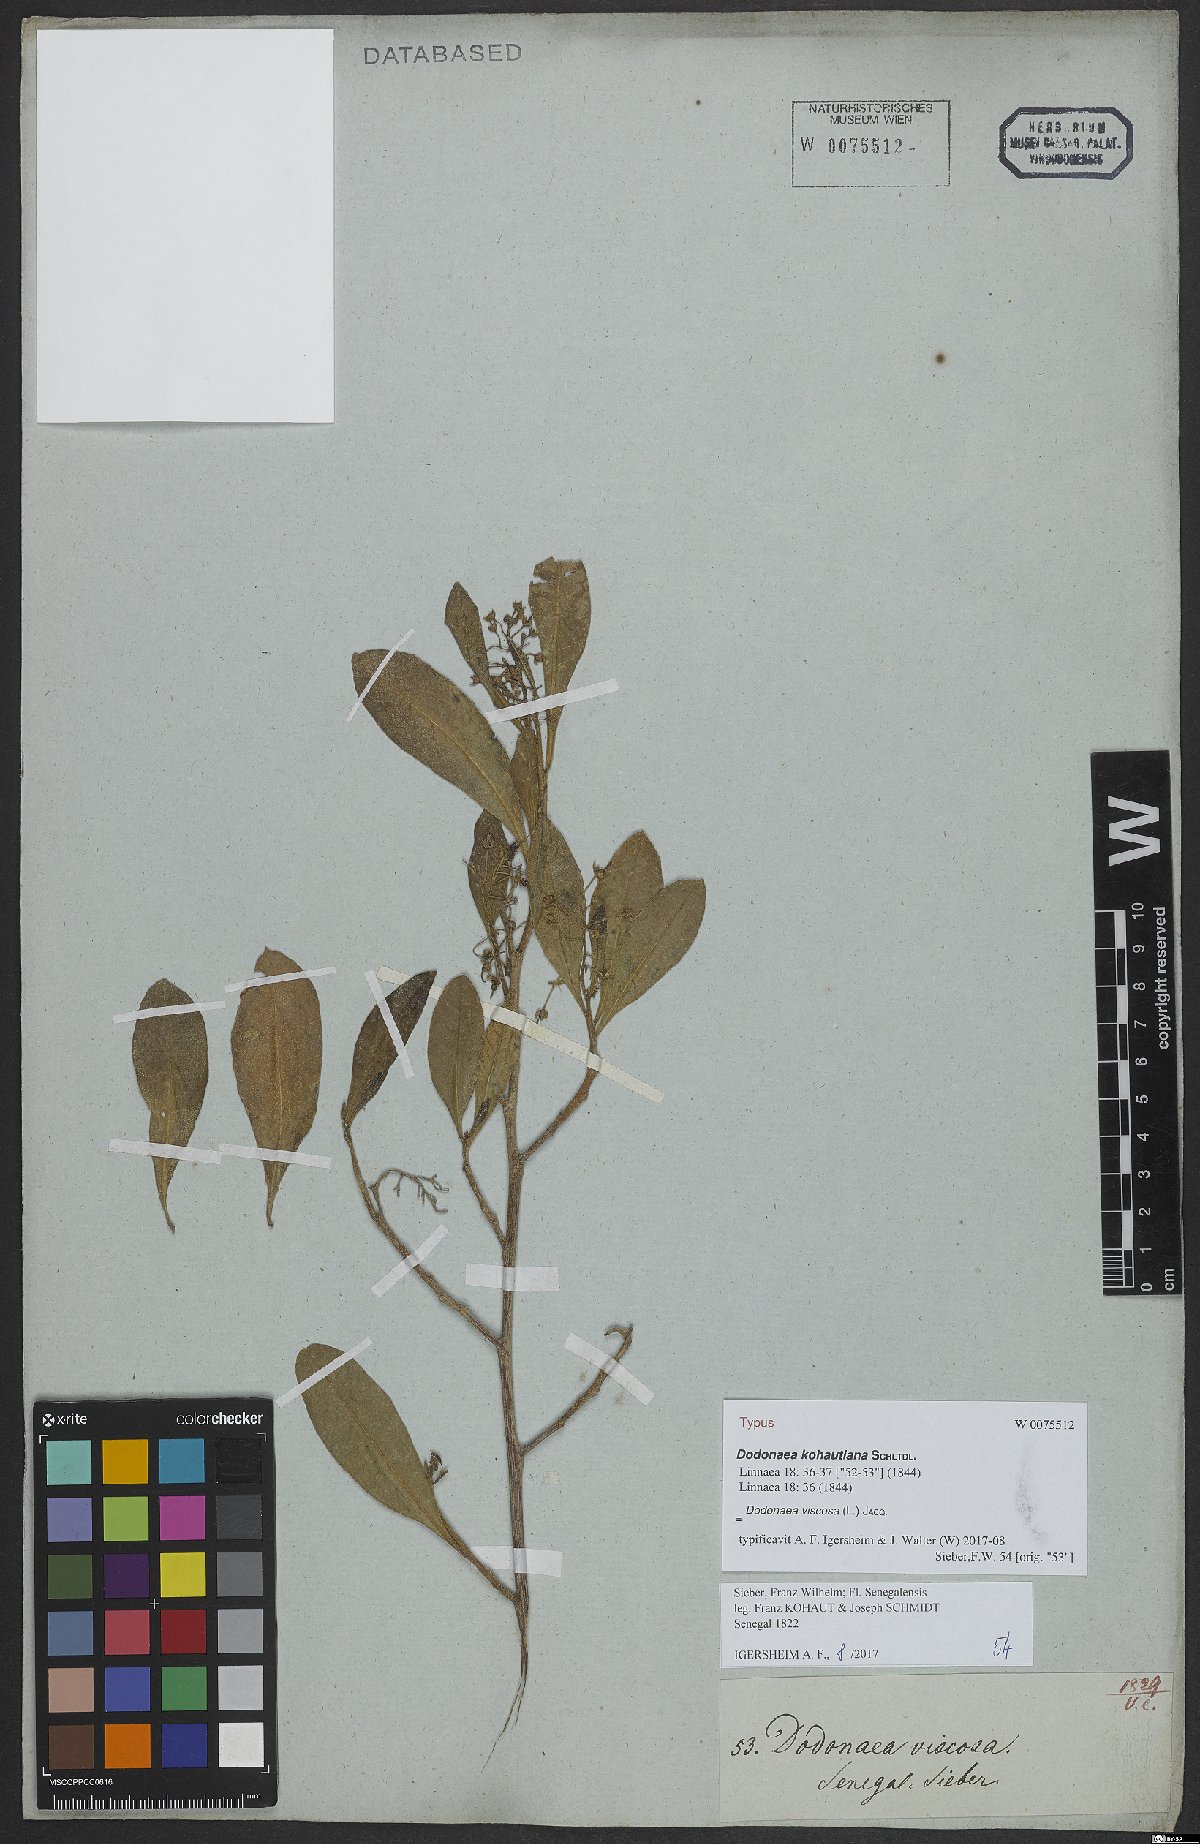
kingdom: Plantae
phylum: Tracheophyta
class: Magnoliopsida
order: Sapindales
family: Sapindaceae
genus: Dodonaea
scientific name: Dodonaea viscosa
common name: Hopbush
